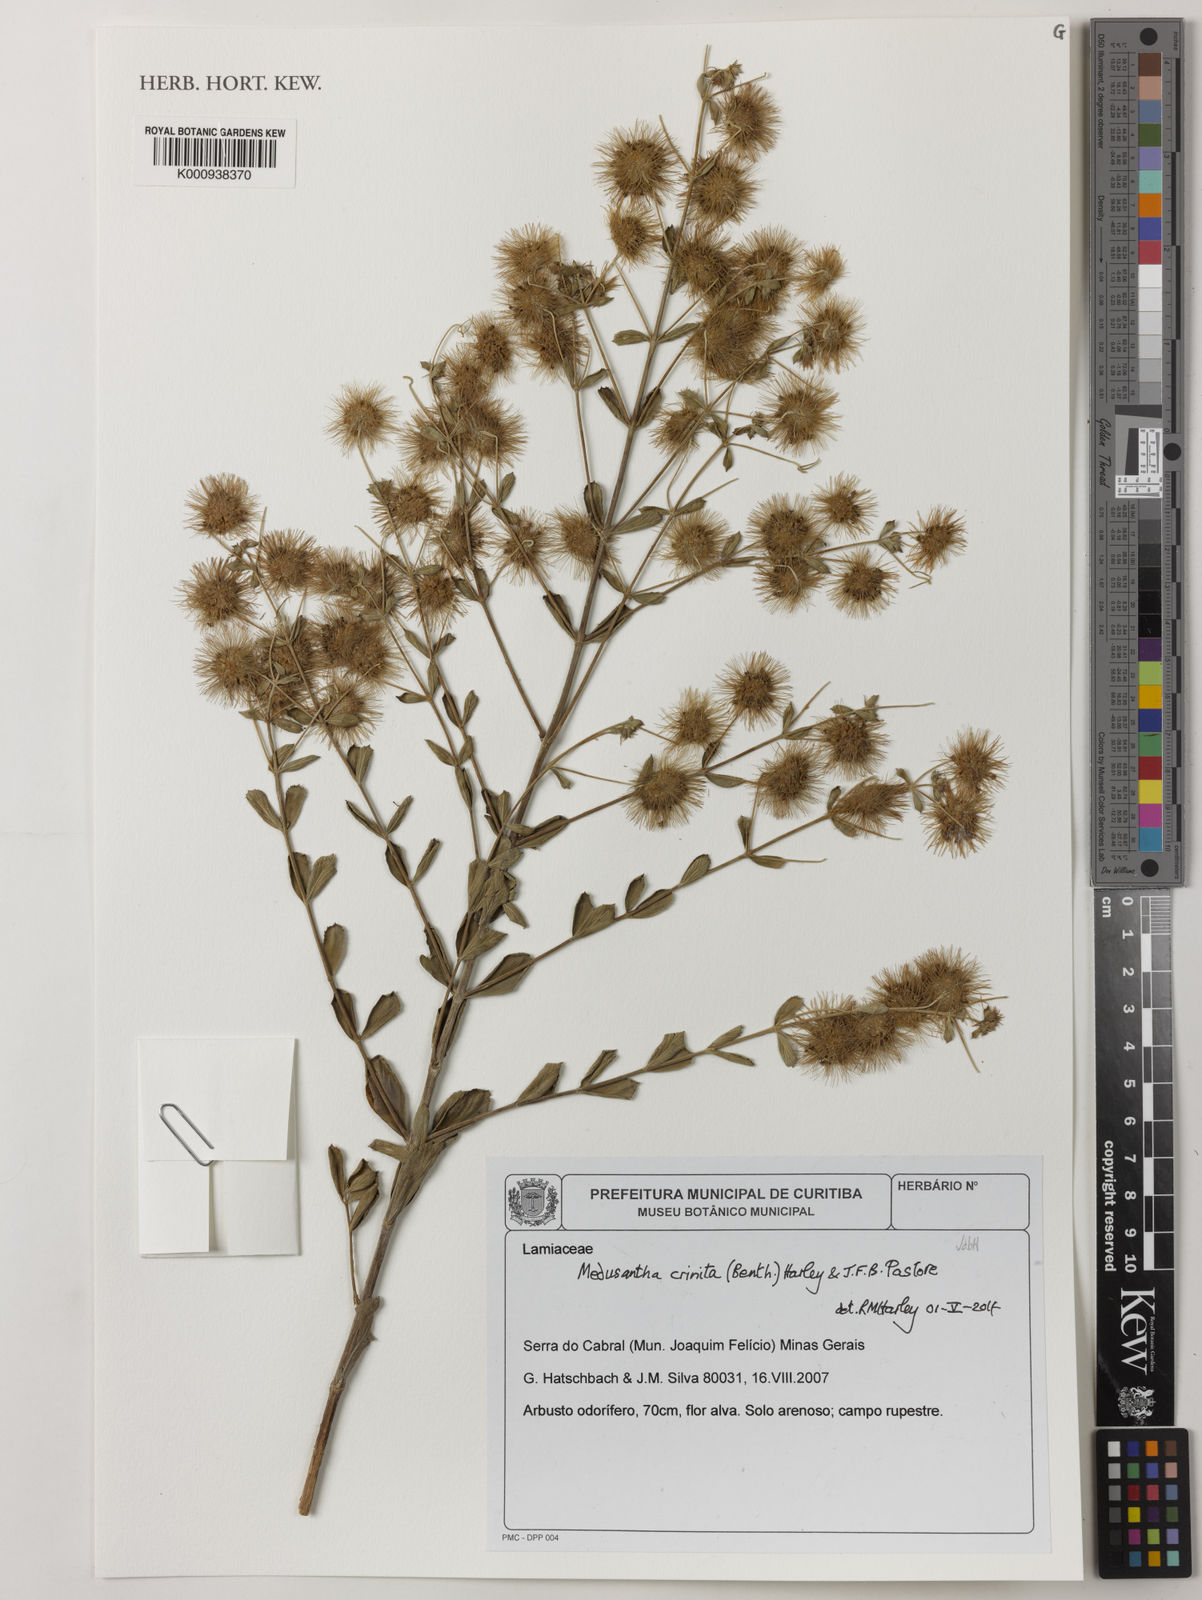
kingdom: Plantae
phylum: Tracheophyta
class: Magnoliopsida
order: Lamiales
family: Lamiaceae
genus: Medusantha
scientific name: Medusantha crinita
